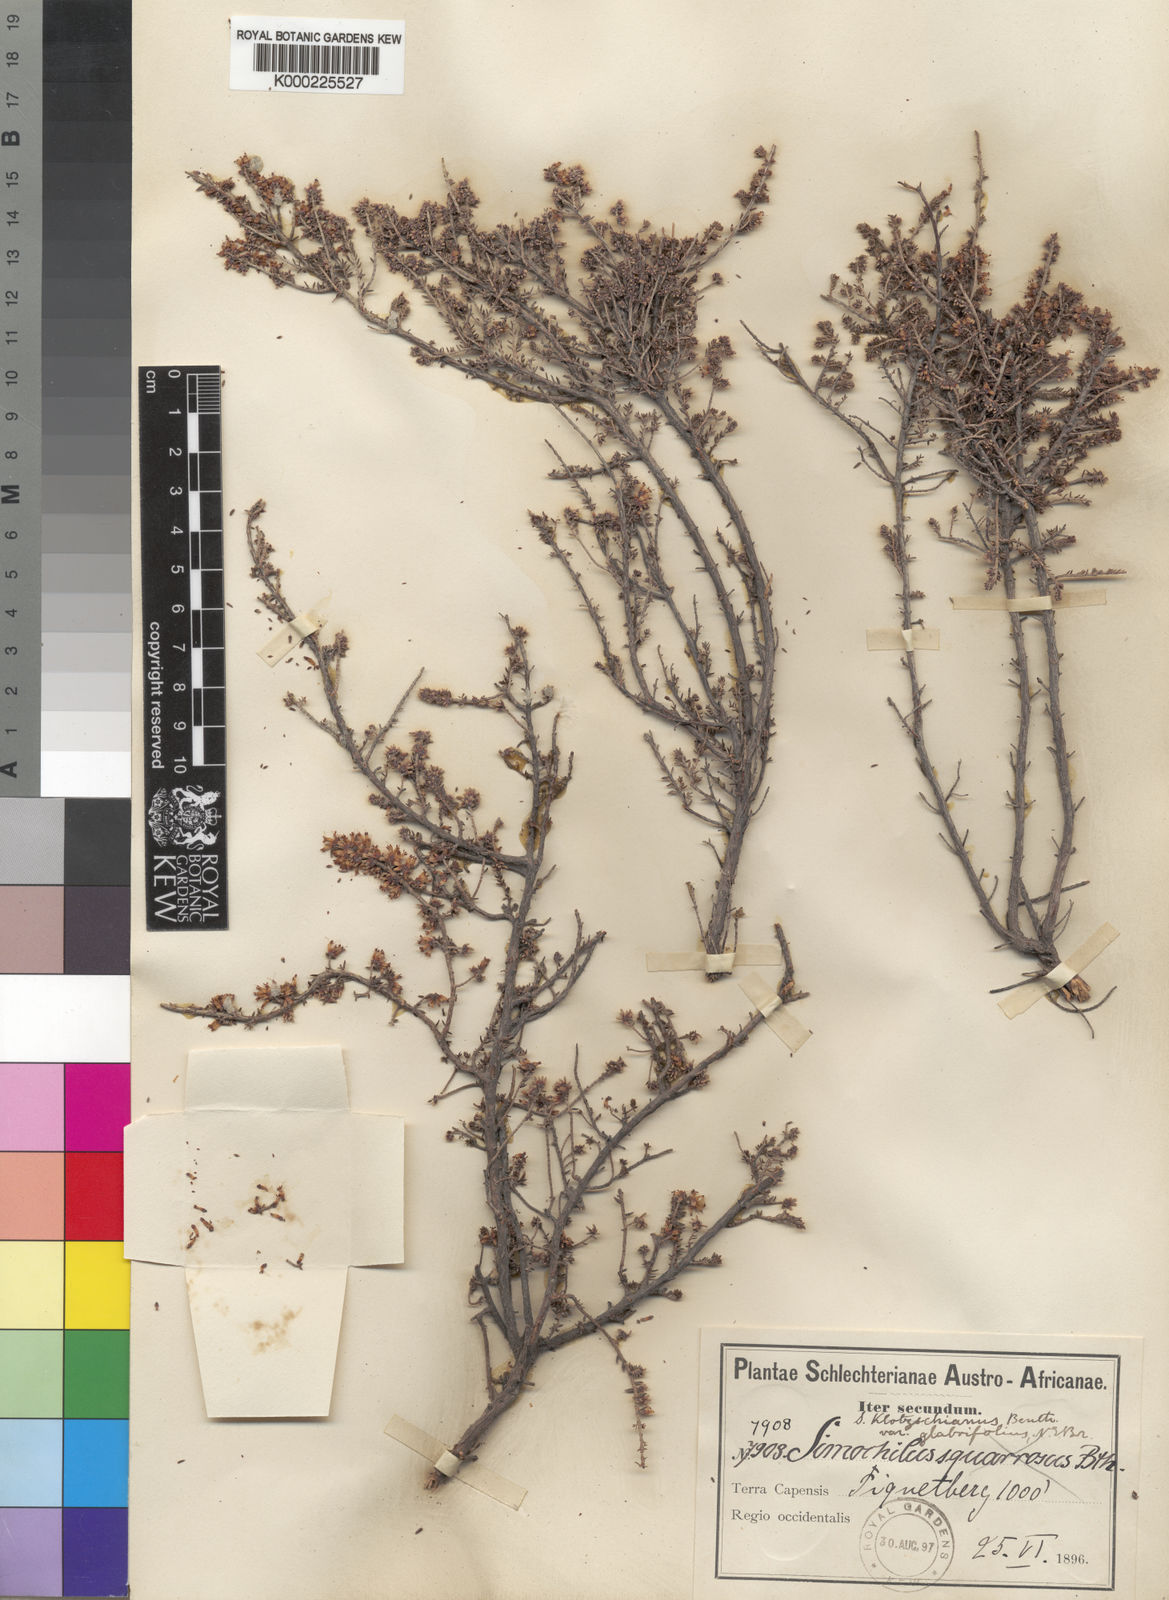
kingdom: Plantae
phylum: Tracheophyta
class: Magnoliopsida
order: Ericales
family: Ericaceae
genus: Erica
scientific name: Erica glabra
